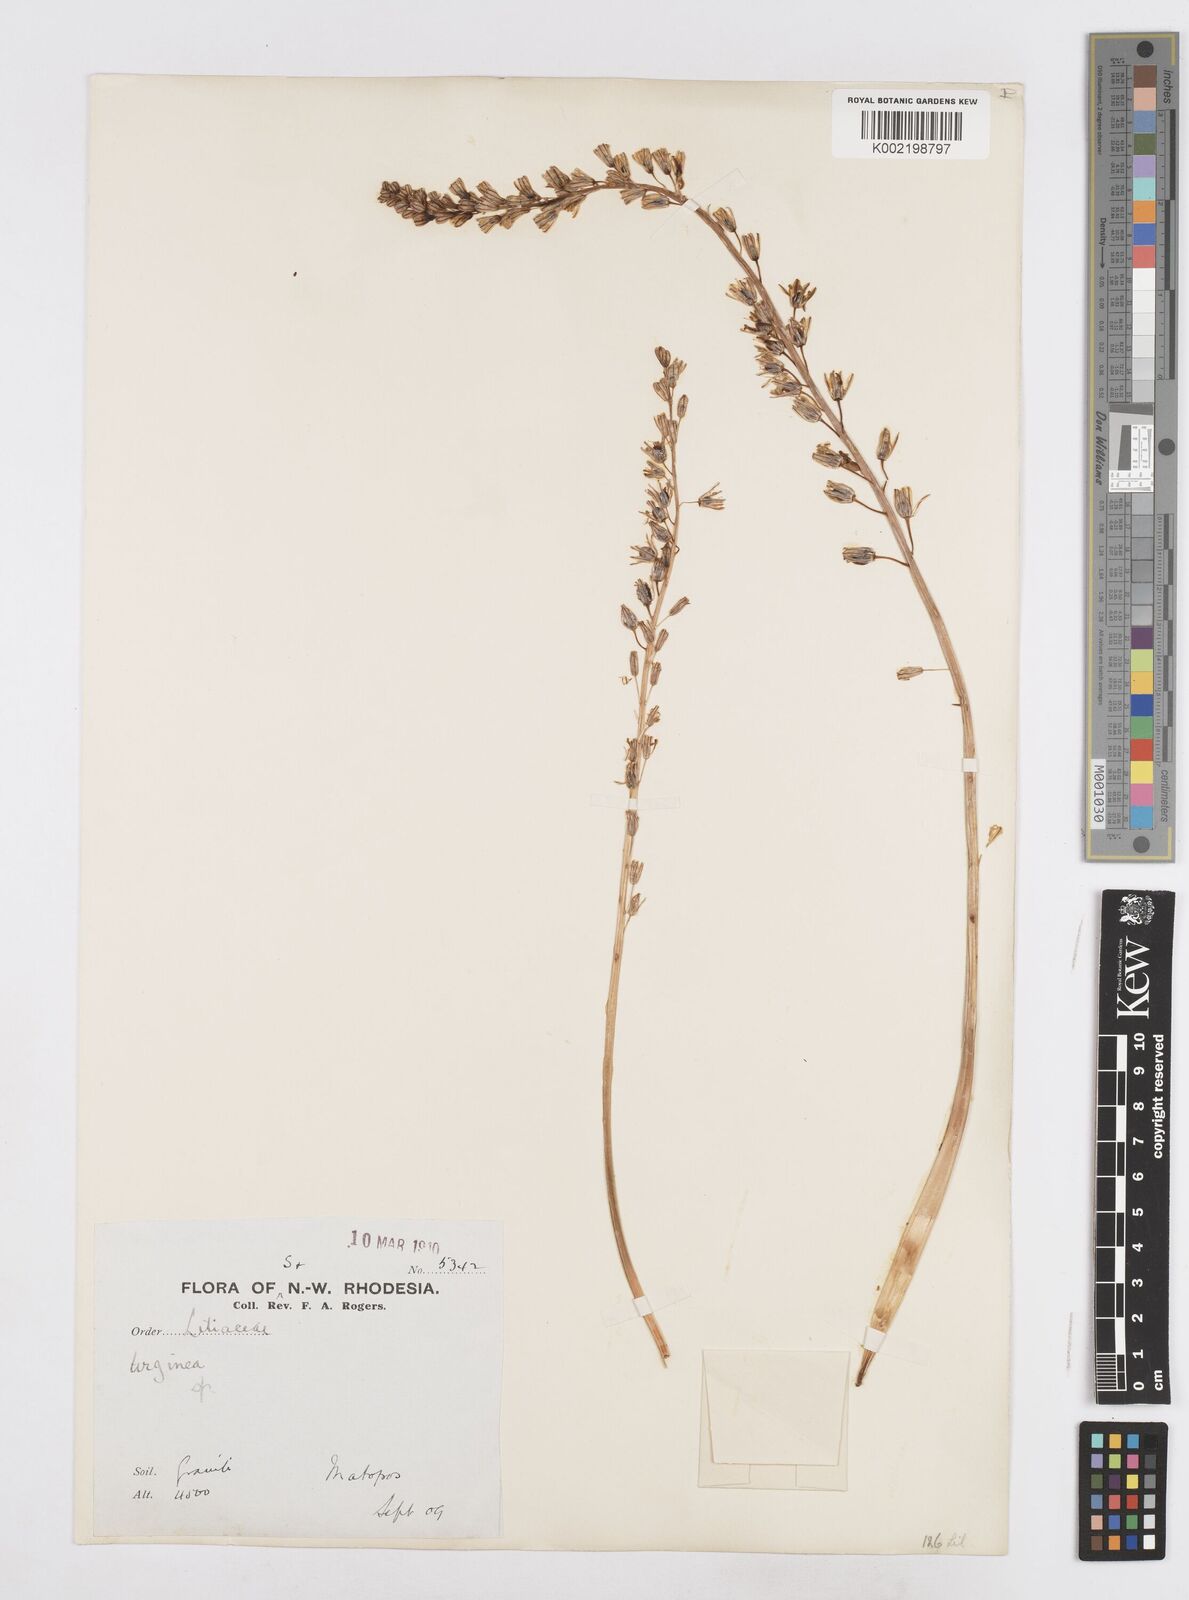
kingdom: Plantae
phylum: Tracheophyta
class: Liliopsida
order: Asparagales
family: Asparagaceae
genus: Drimia
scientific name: Drimia sanguinea
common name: Transvaal slangkop
